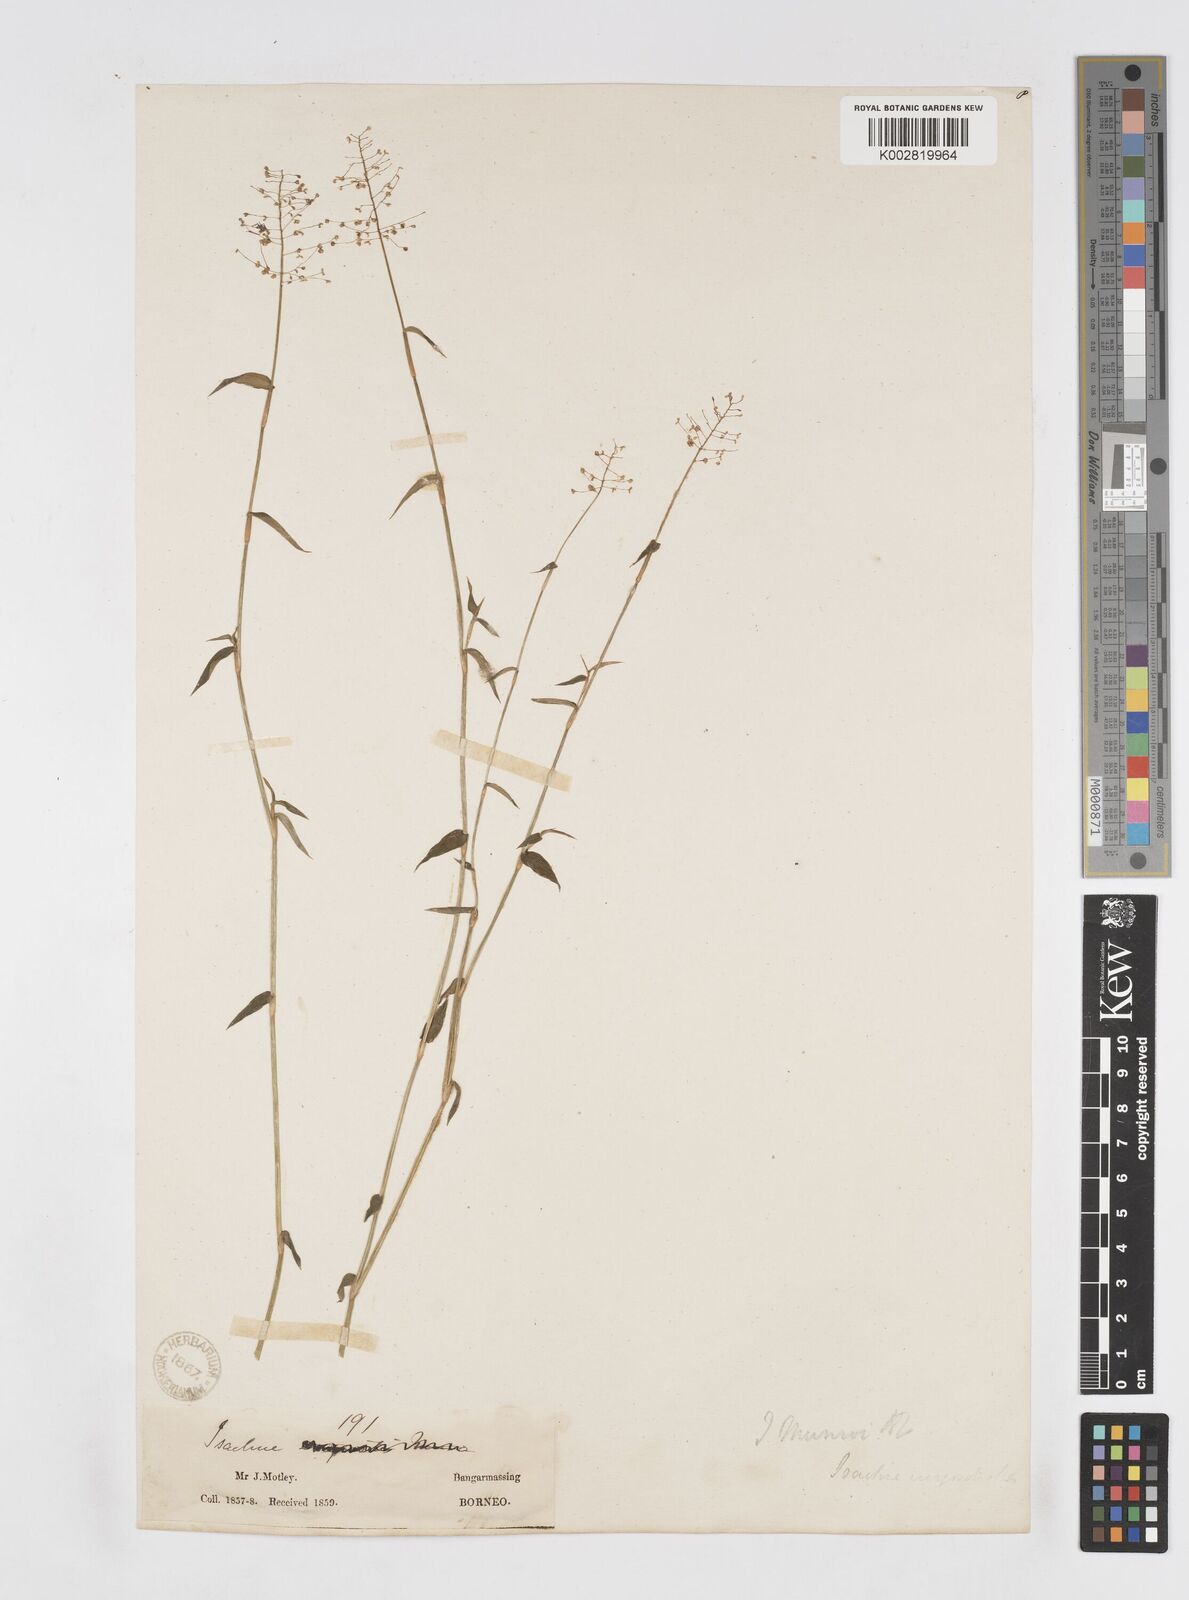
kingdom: Plantae
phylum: Tracheophyta
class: Liliopsida
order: Poales
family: Poaceae
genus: Isachne
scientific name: Isachne confusa
